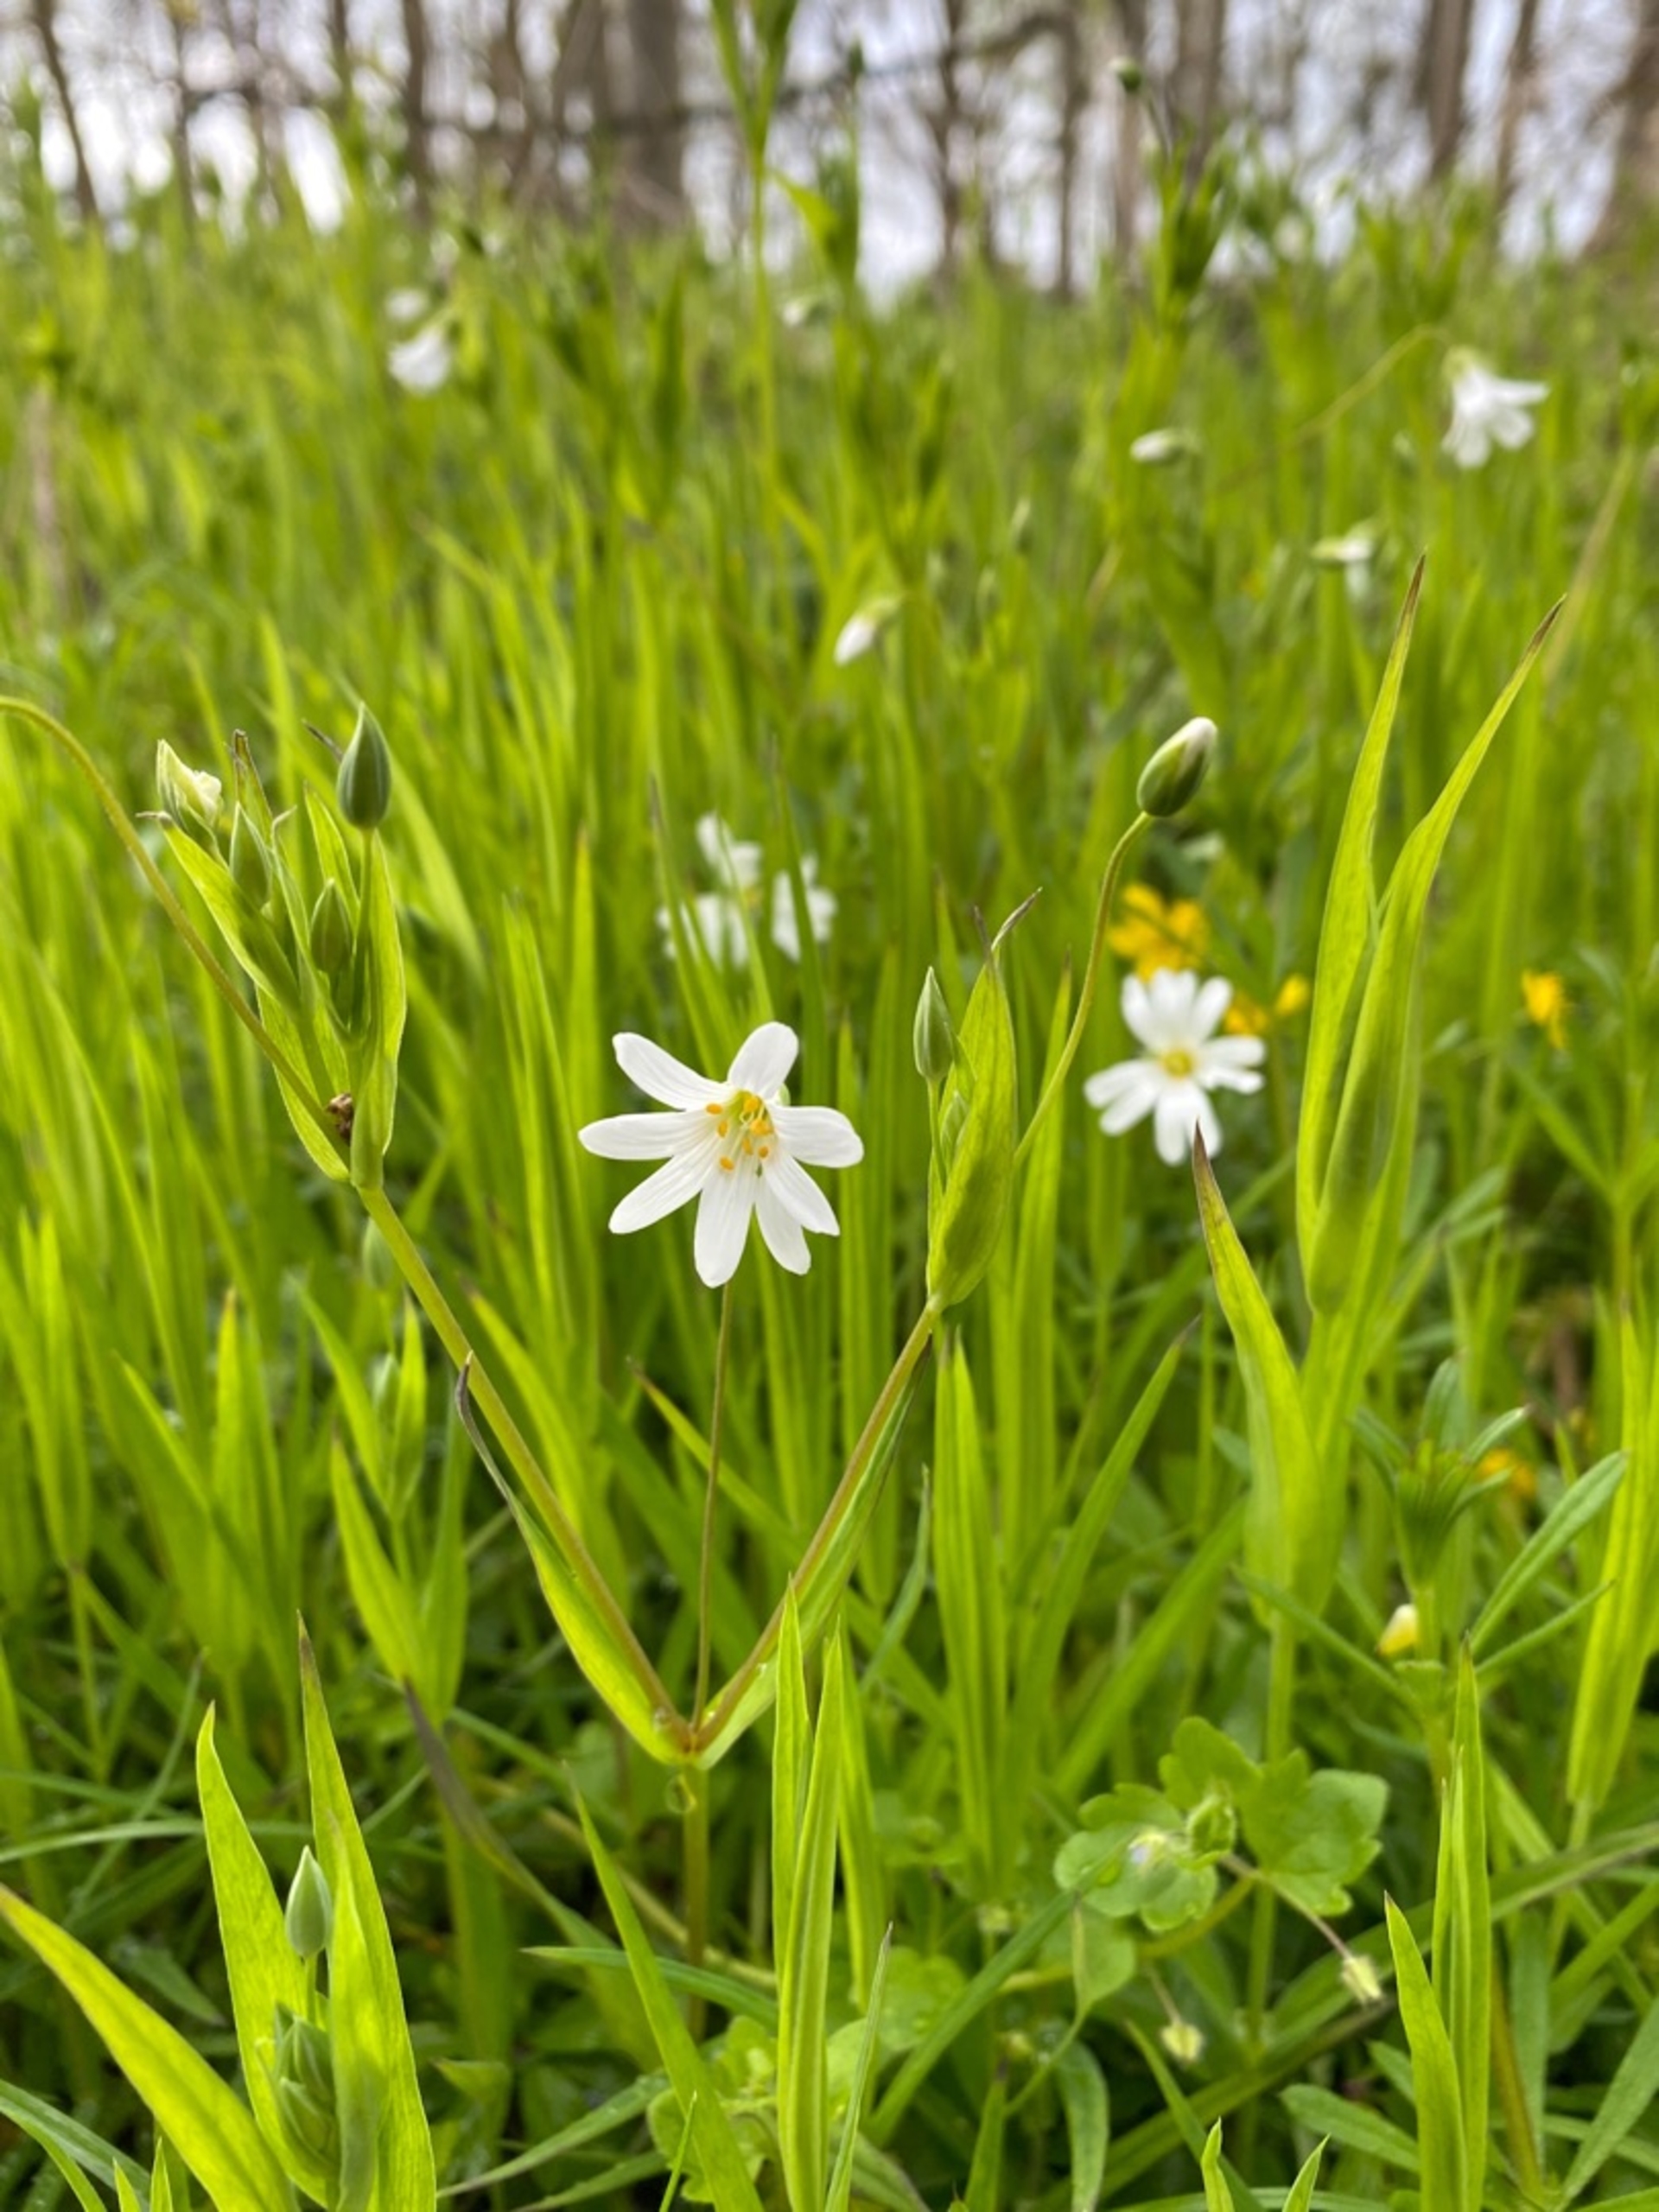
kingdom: Plantae
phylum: Tracheophyta
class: Magnoliopsida
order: Caryophyllales
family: Caryophyllaceae
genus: Rabelera
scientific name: Rabelera holostea
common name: Stor fladstjerne
